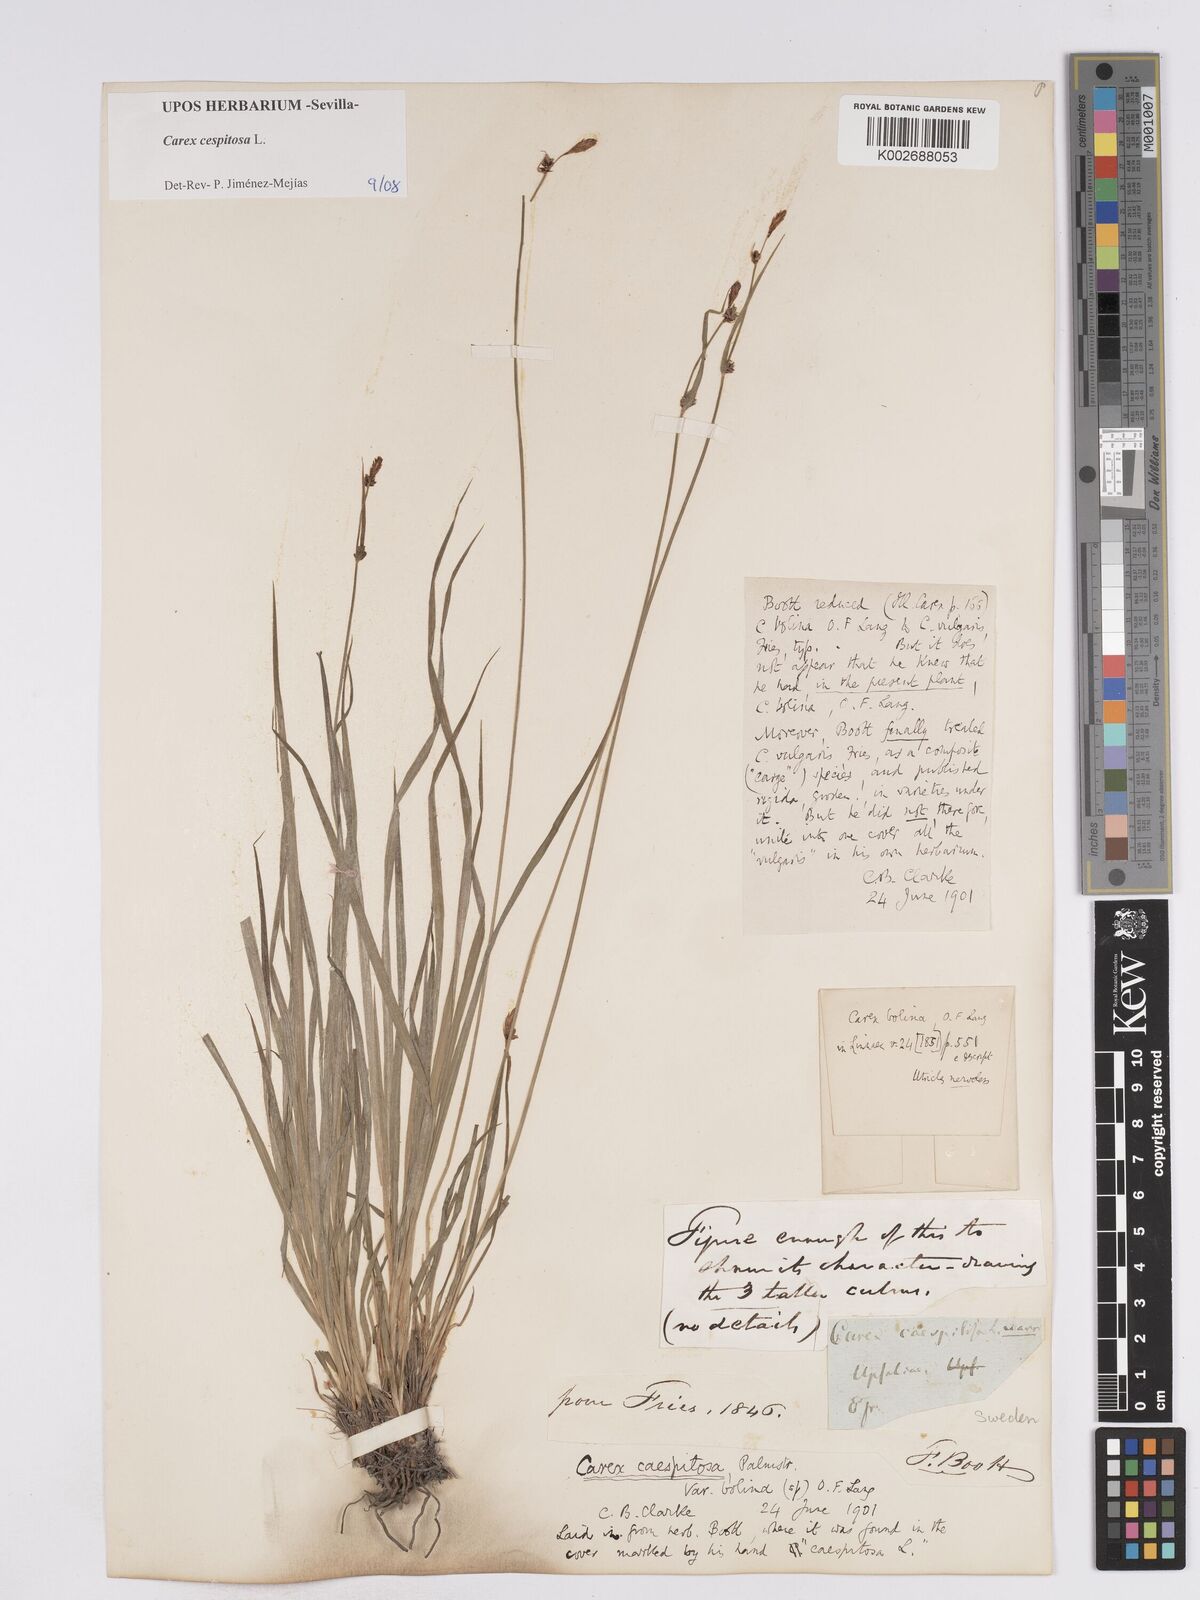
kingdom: Plantae
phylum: Tracheophyta
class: Liliopsida
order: Poales
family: Cyperaceae
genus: Carex
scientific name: Carex
